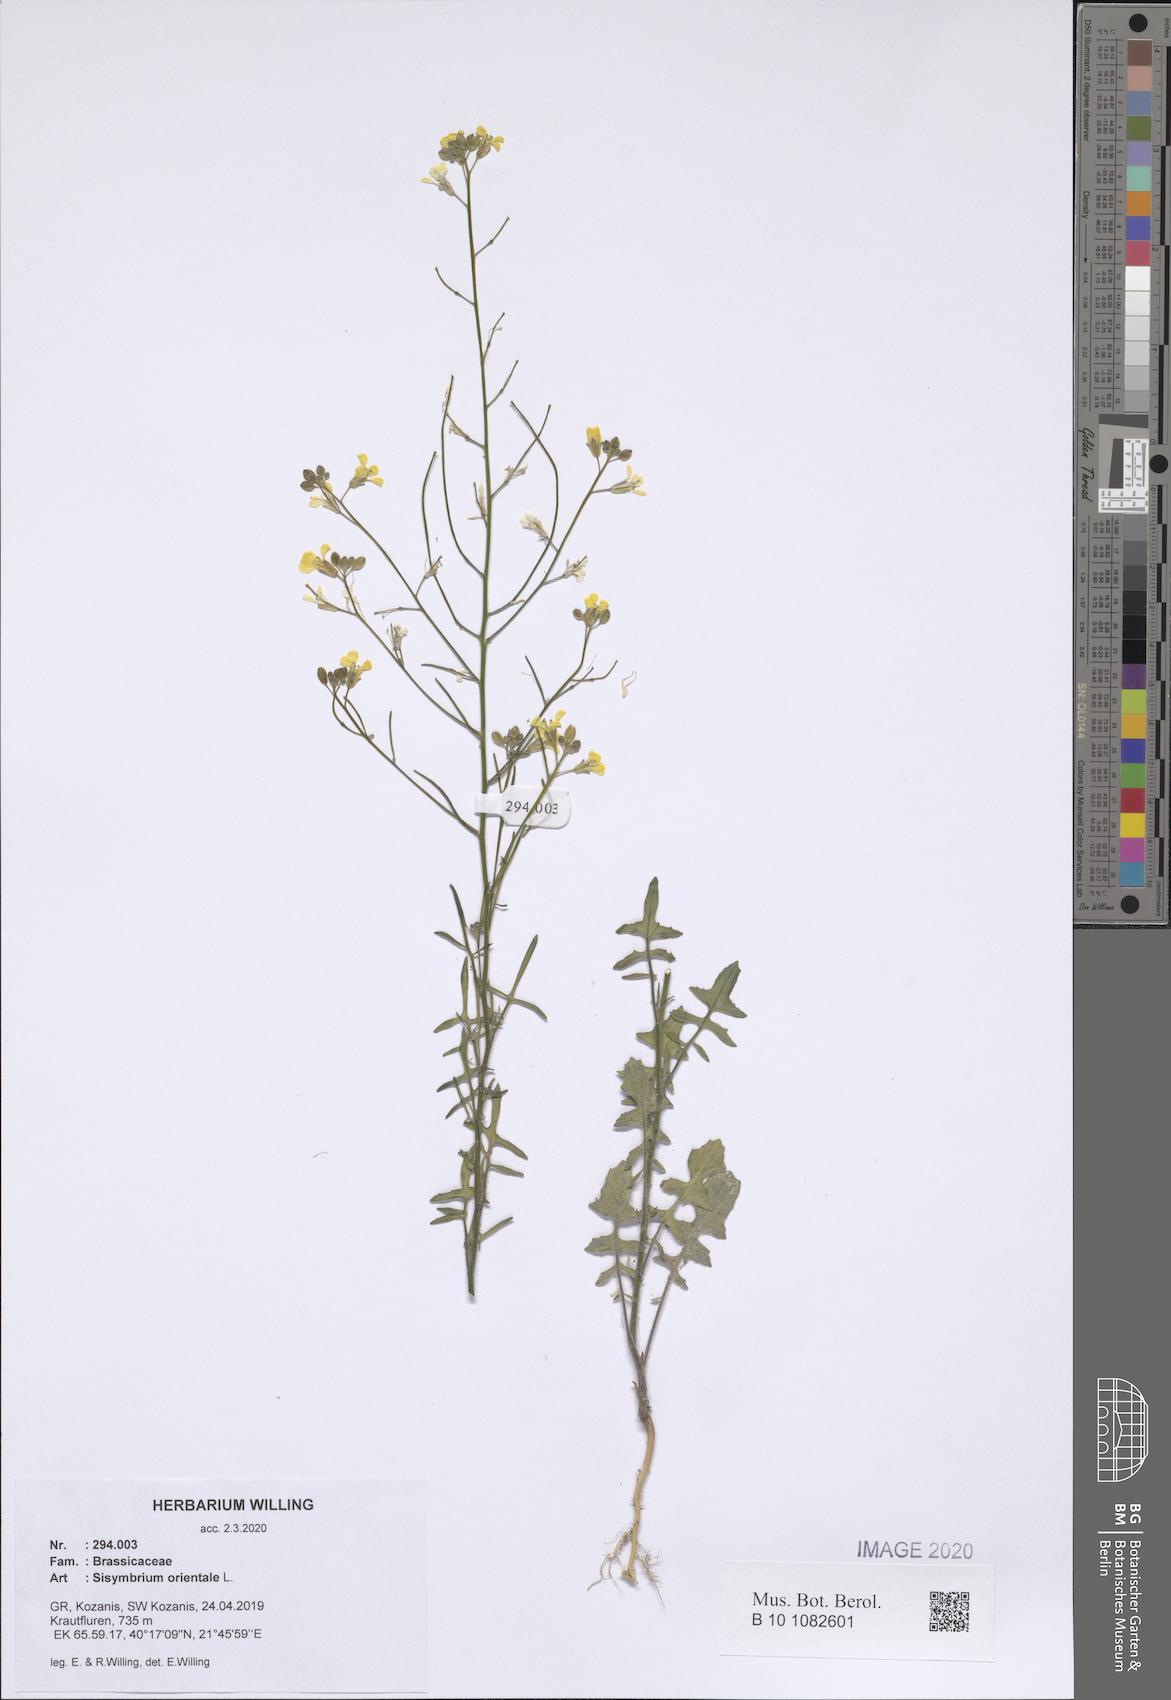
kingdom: Plantae
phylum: Tracheophyta
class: Magnoliopsida
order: Brassicales
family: Brassicaceae
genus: Sisymbrium
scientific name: Sisymbrium orientale
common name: Eastern rocket
